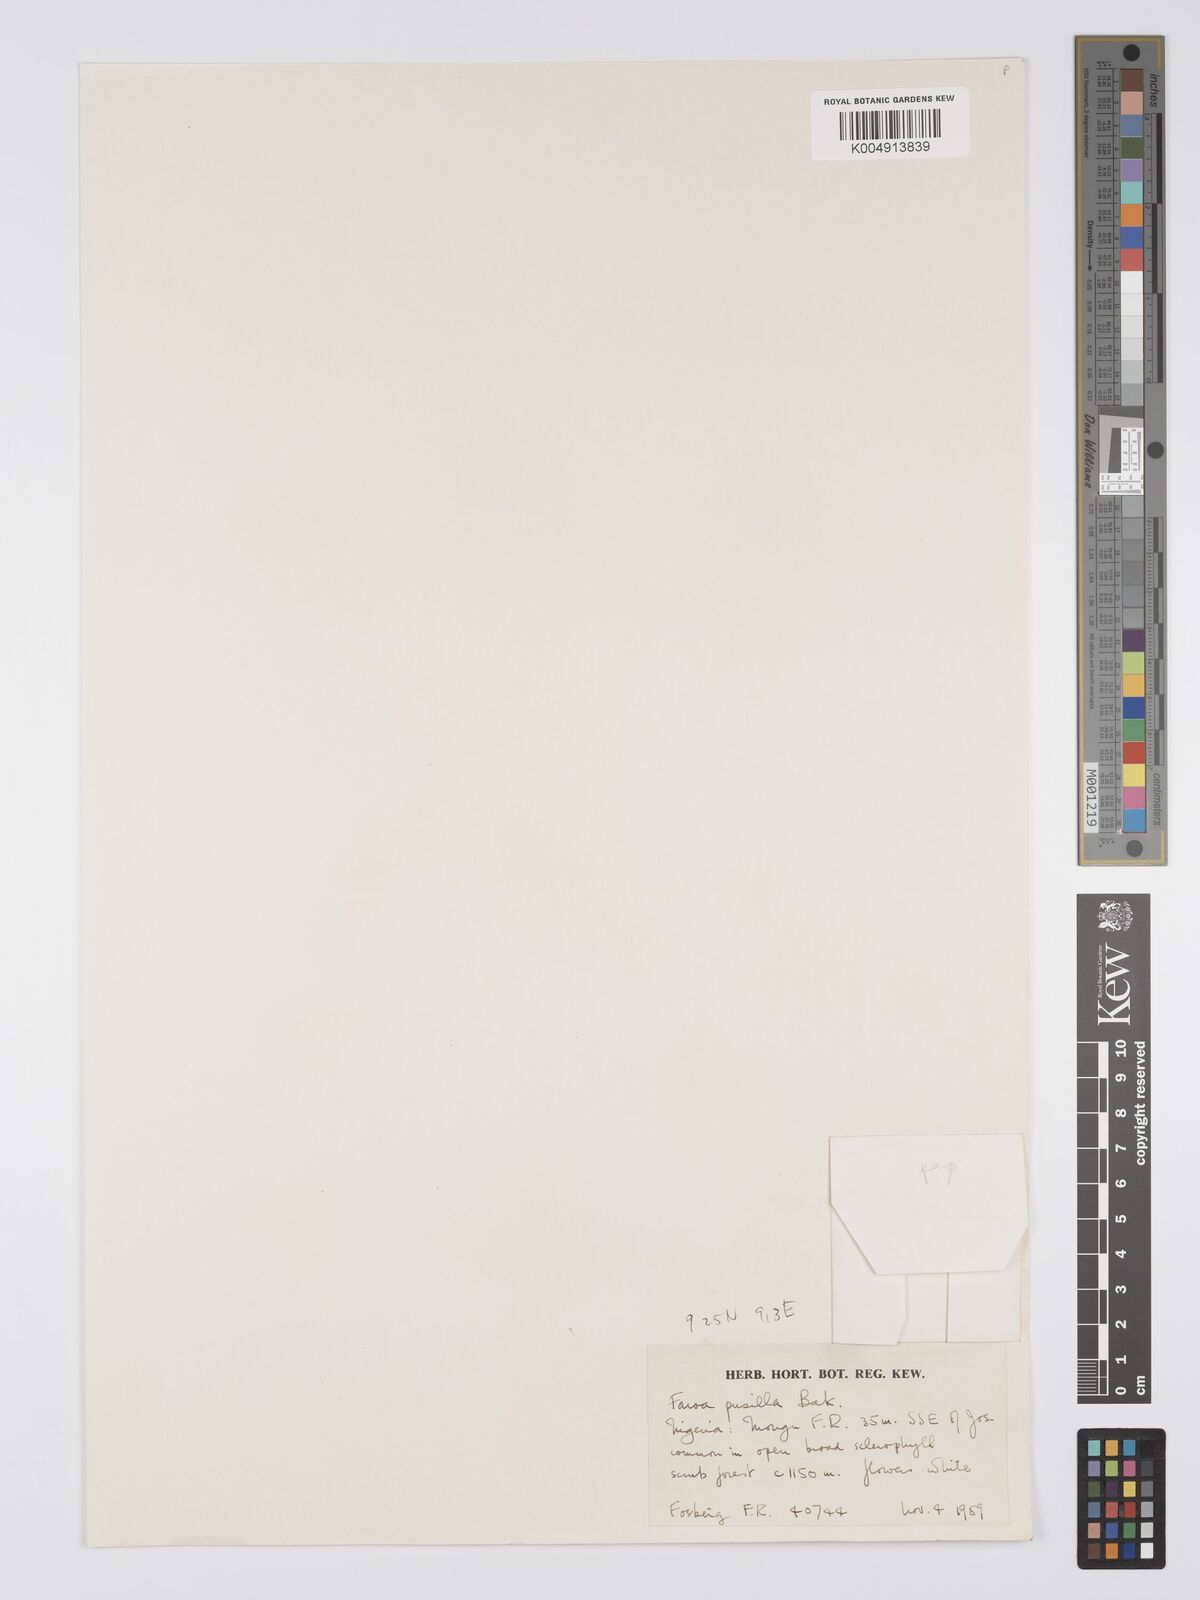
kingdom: Plantae
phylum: Tracheophyta
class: Magnoliopsida
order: Gentianales
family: Gentianaceae
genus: Faroa
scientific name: Faroa pusilla
